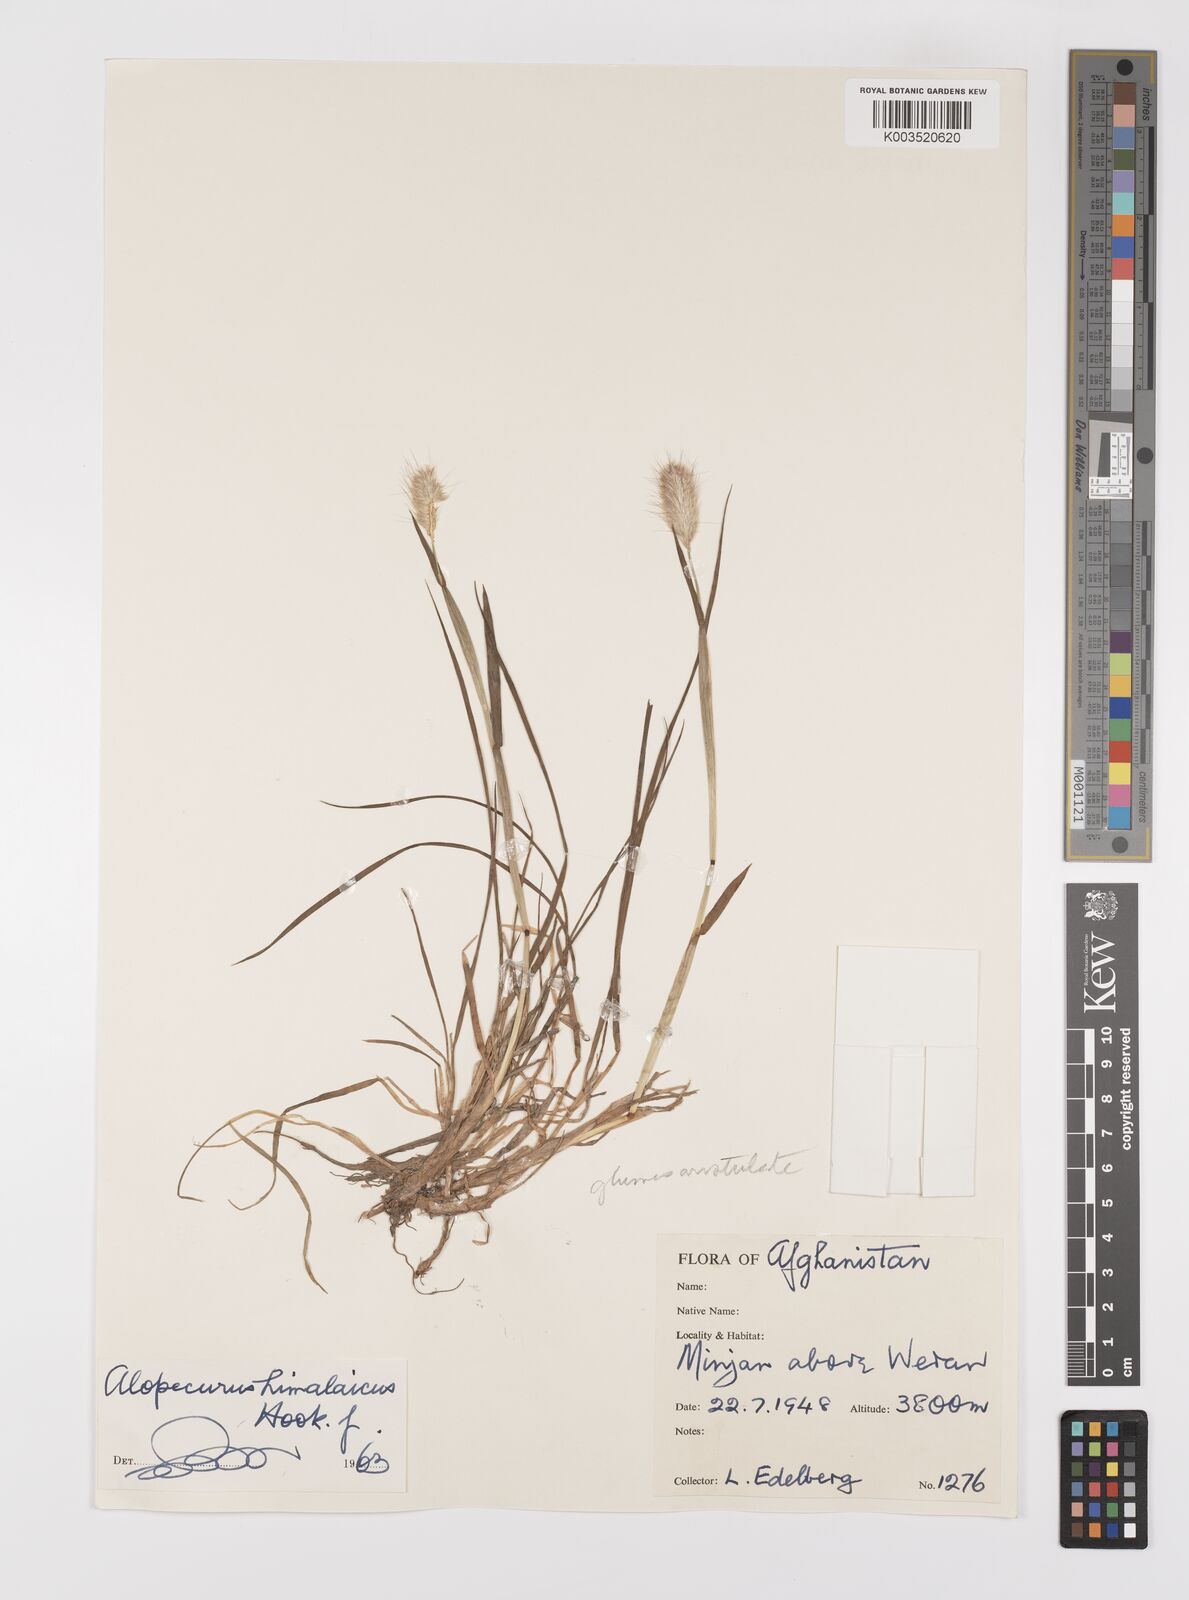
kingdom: Plantae
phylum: Tracheophyta
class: Liliopsida
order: Poales
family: Poaceae
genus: Alopecurus
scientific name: Alopecurus himalaicus
